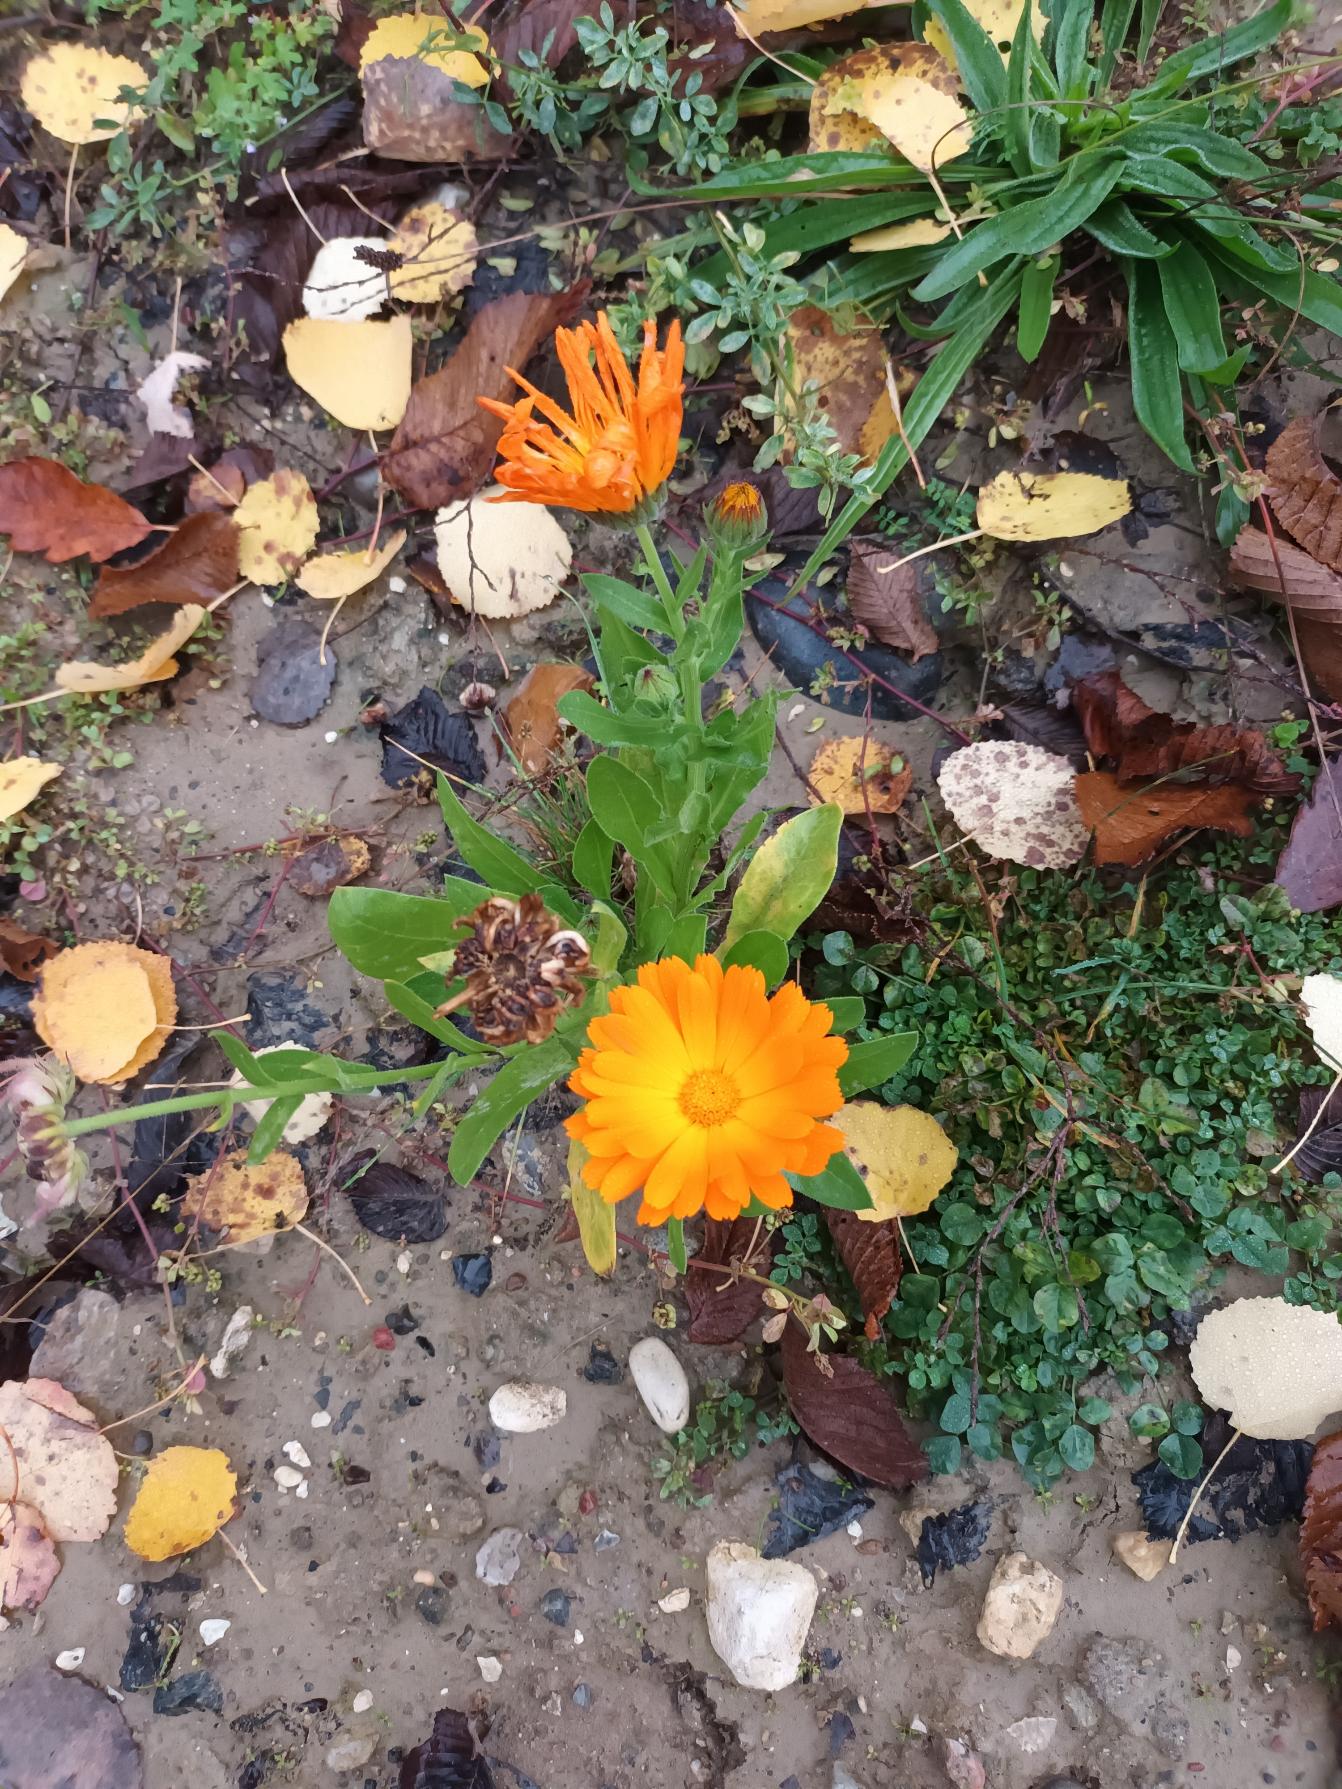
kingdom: Plantae
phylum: Tracheophyta
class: Magnoliopsida
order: Asterales
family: Asteraceae
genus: Calendula
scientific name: Calendula officinalis
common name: Have-morgenfrue
